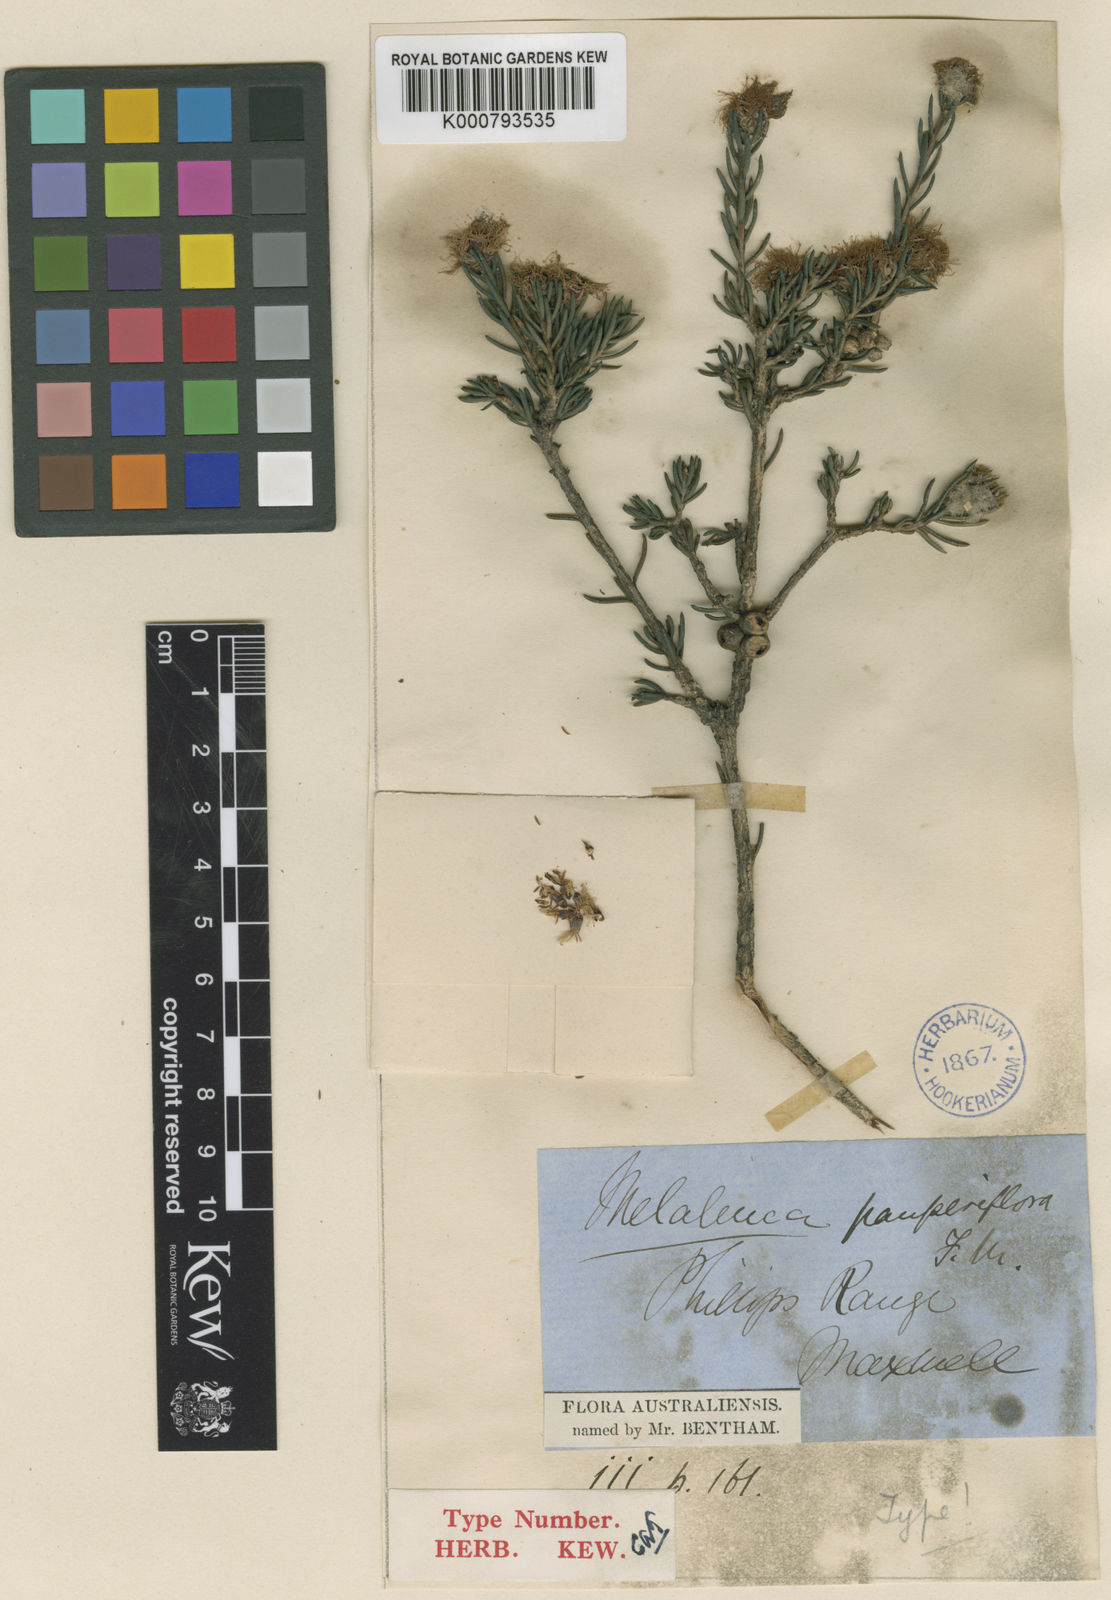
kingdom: Plantae
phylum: Tracheophyta
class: Magnoliopsida
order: Myrtales
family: Myrtaceae
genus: Melaleuca
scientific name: Melaleuca pauperiflora
